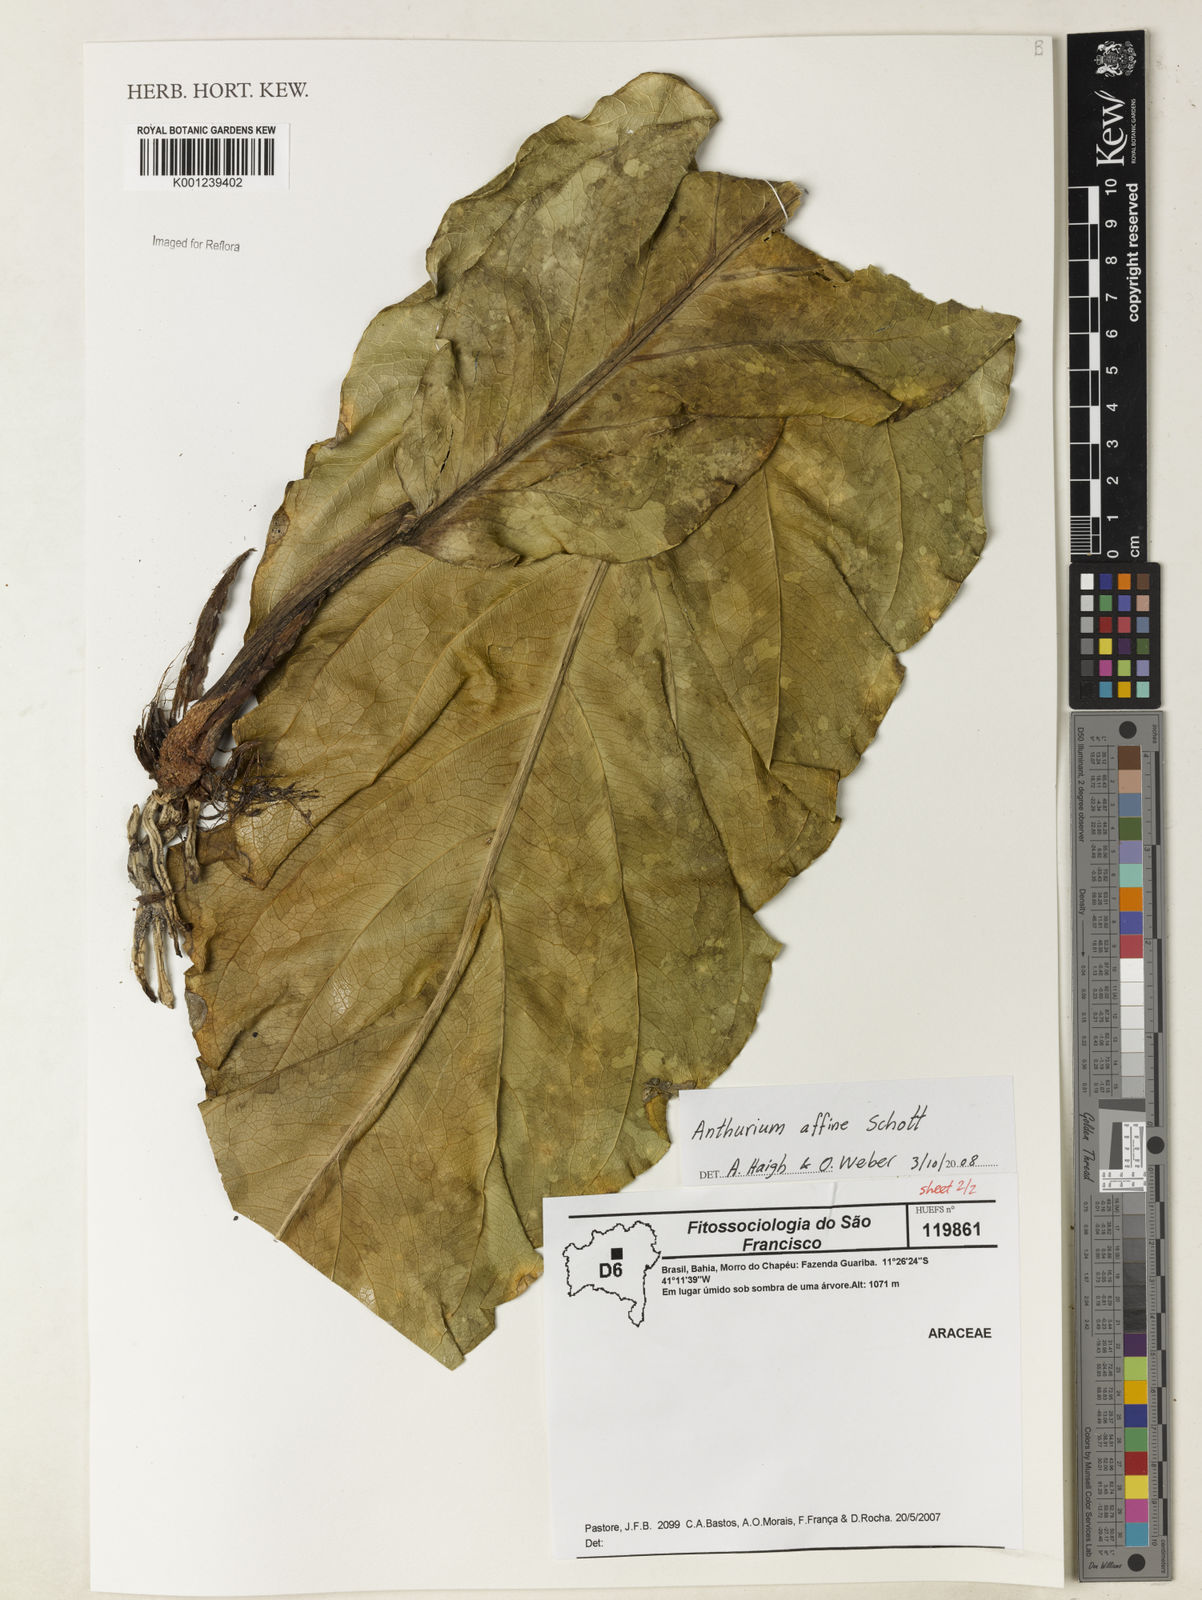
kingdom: Plantae
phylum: Tracheophyta
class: Liliopsida
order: Alismatales
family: Araceae
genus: Anthurium
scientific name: Anthurium affine
